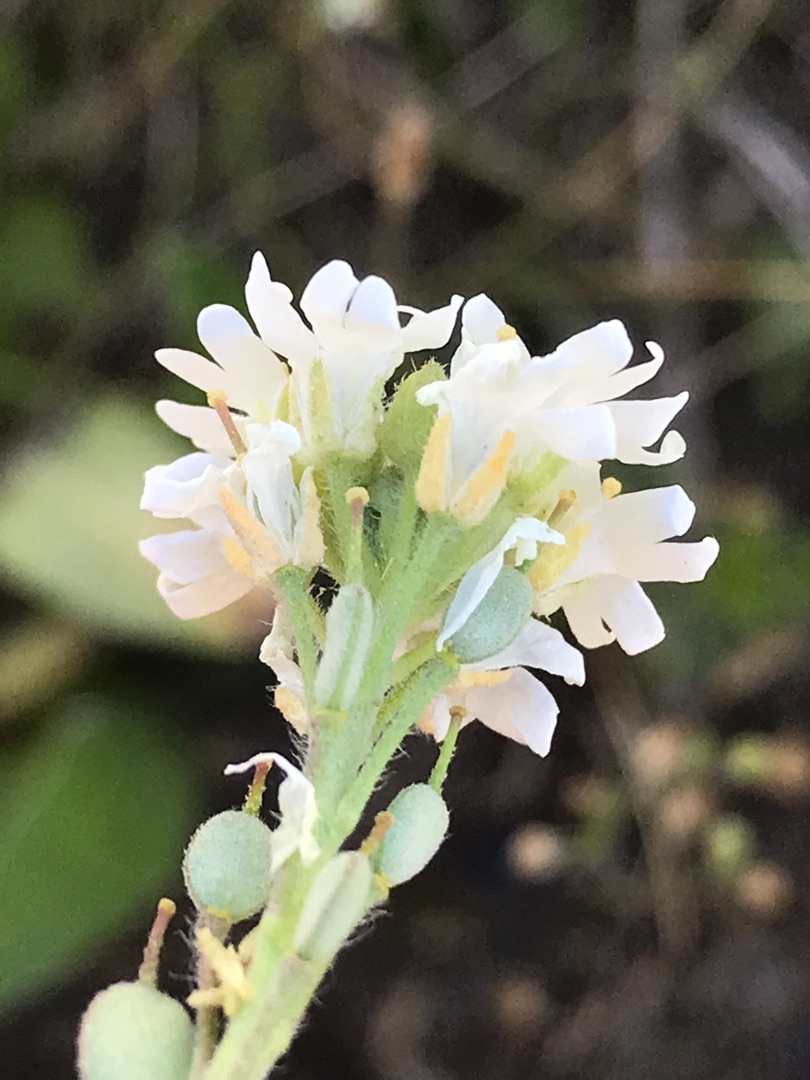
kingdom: Plantae
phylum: Tracheophyta
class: Magnoliopsida
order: Brassicales
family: Brassicaceae
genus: Berteroa
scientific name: Berteroa incana
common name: Kløvplade
